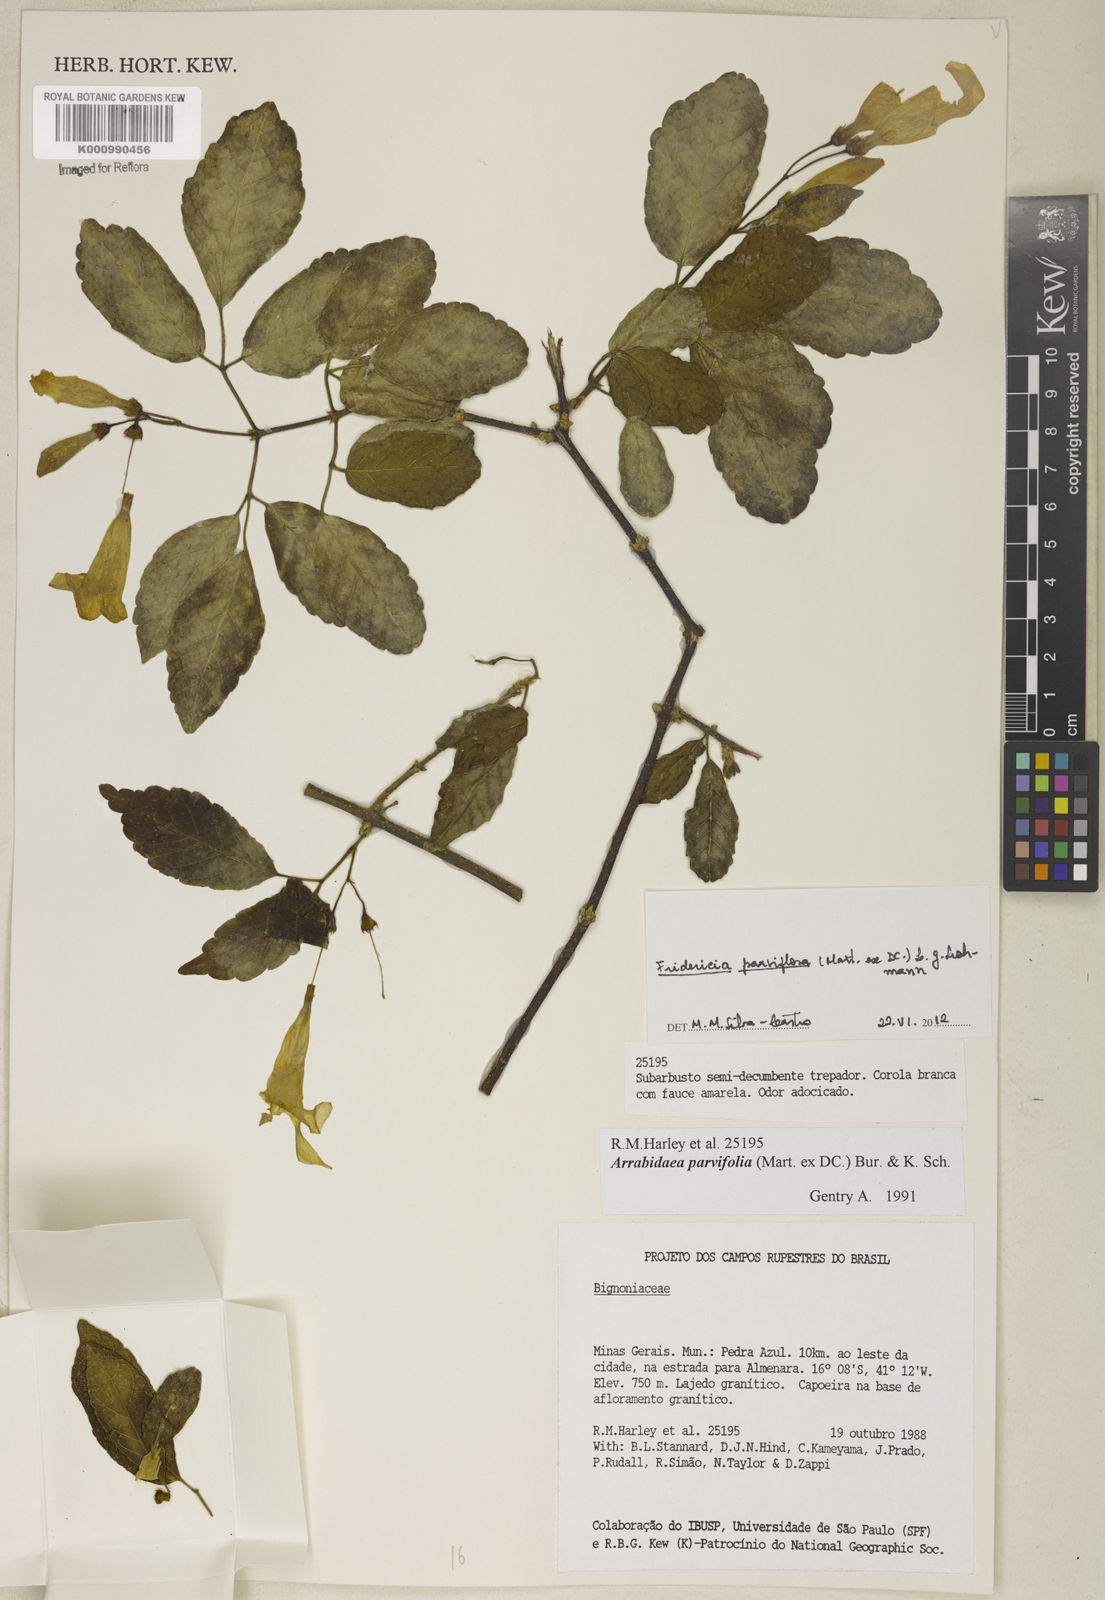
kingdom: Plantae
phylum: Tracheophyta
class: Magnoliopsida
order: Lamiales
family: Bignoniaceae
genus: Tanaecium
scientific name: Tanaecium parviflorum
